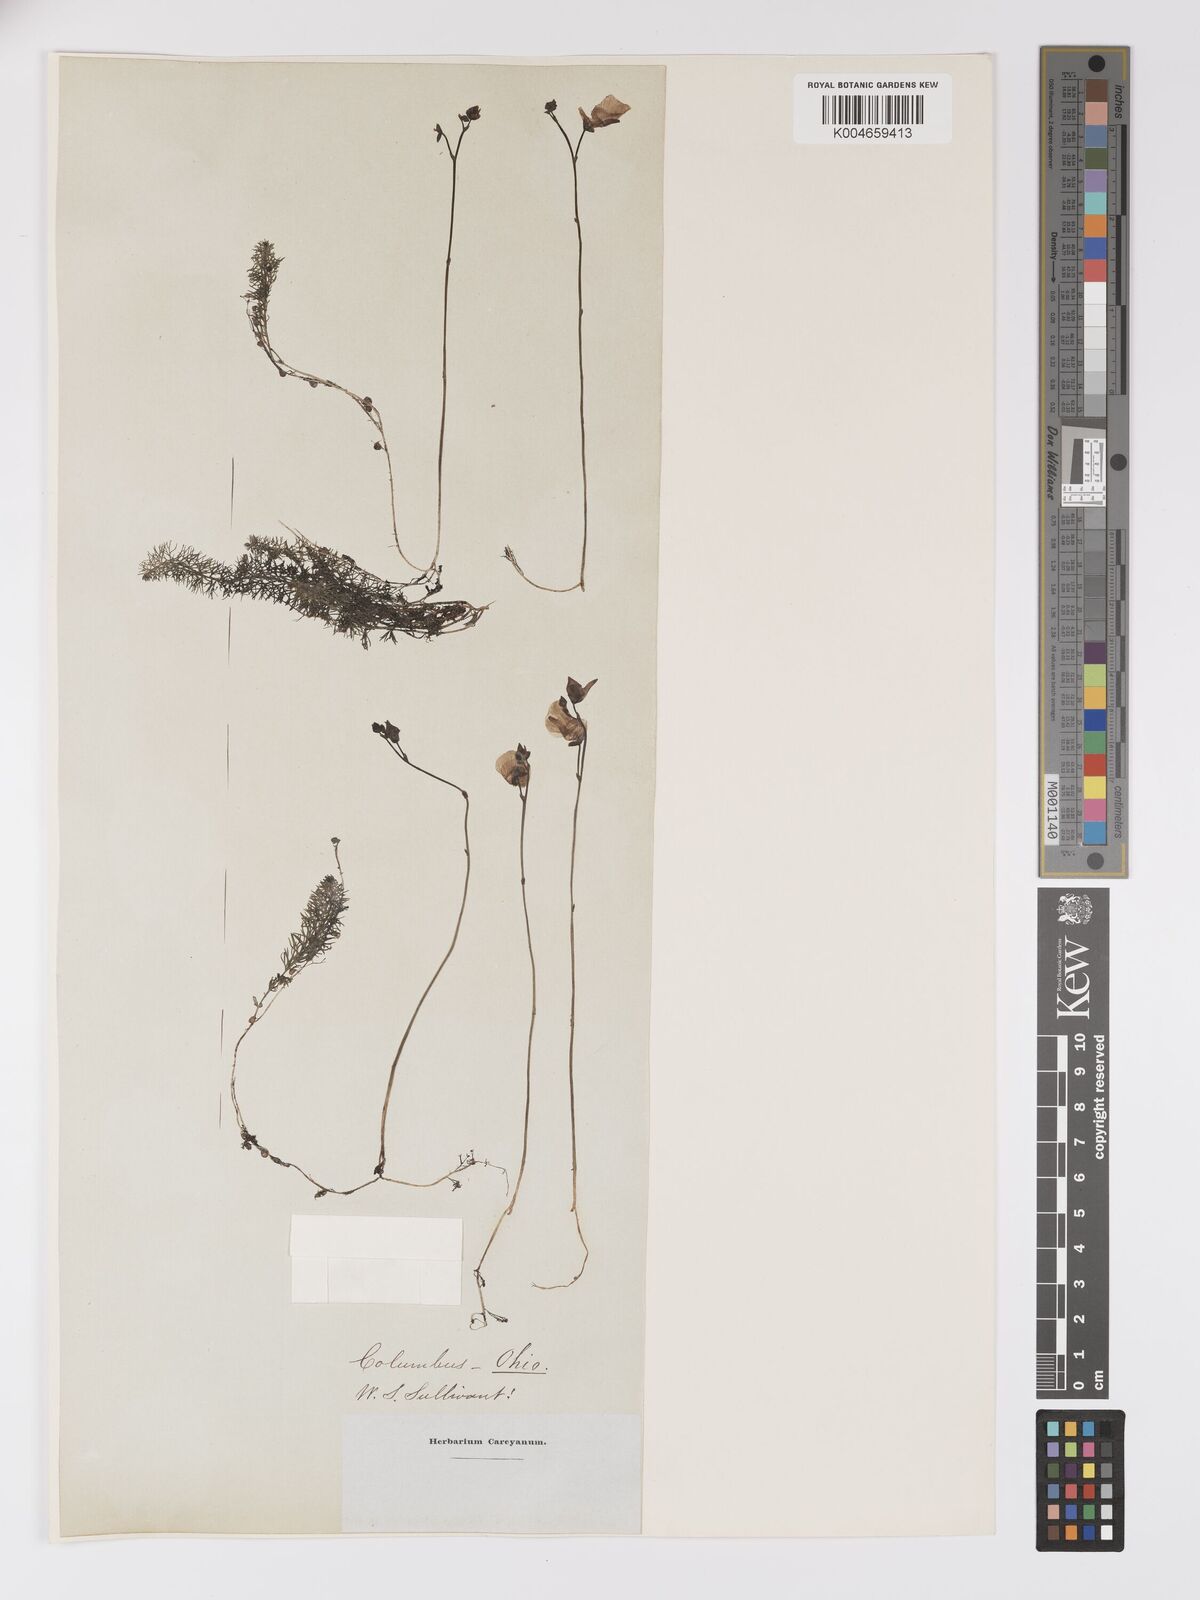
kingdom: Plantae
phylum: Tracheophyta
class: Magnoliopsida
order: Lamiales
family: Lentibulariaceae
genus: Utricularia
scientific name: Utricularia intermedia
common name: Intermediate bladderwort
